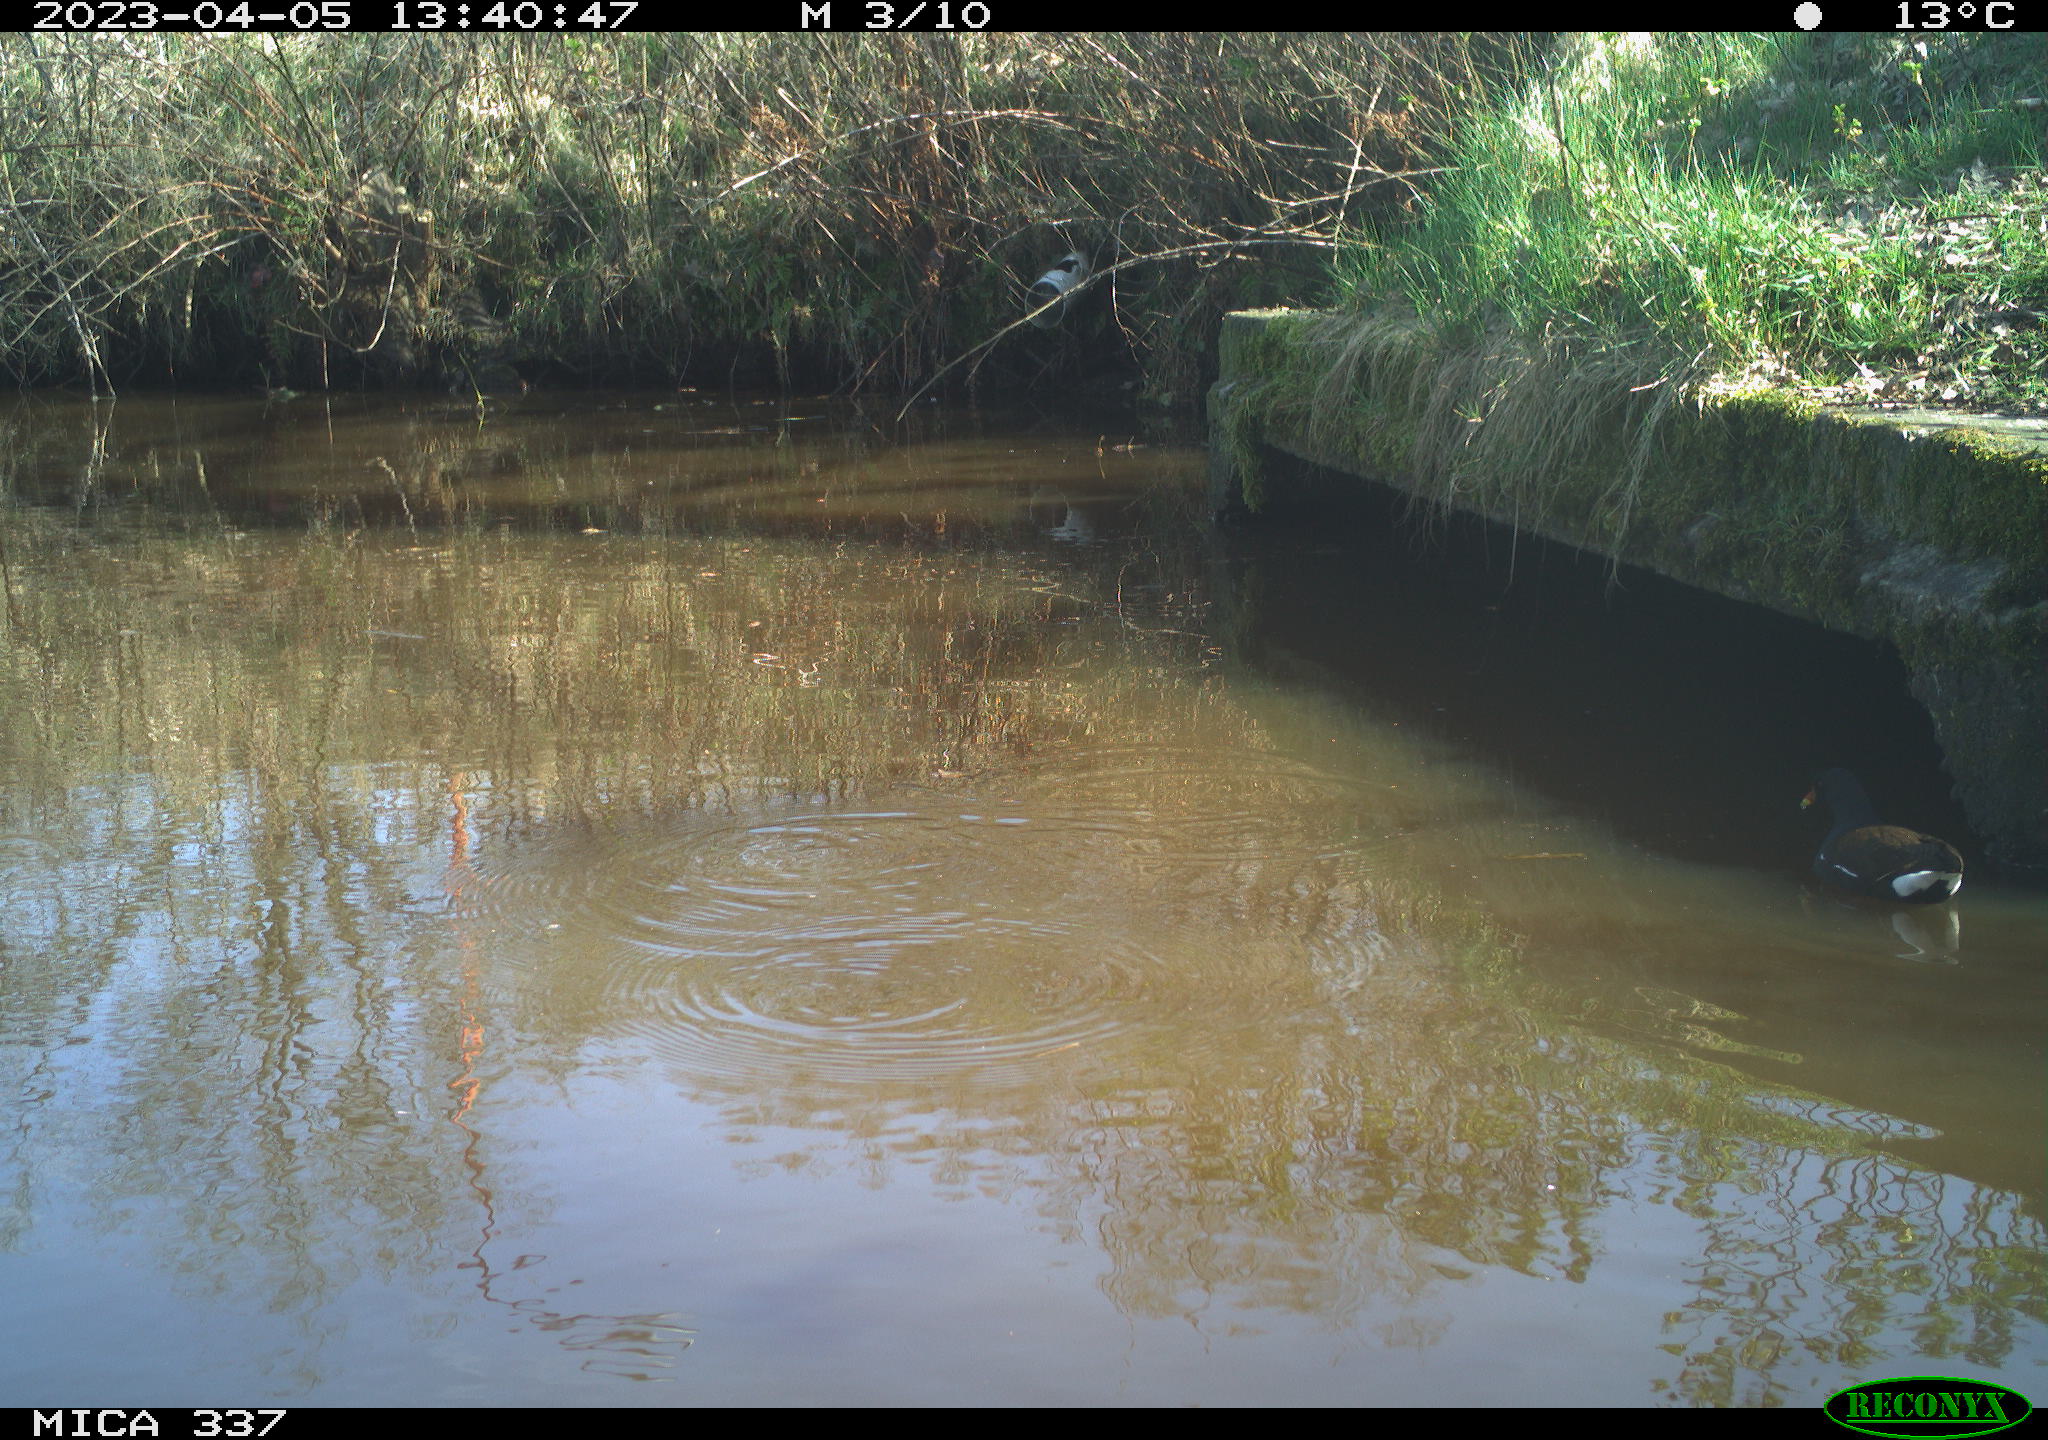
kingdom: Animalia
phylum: Chordata
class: Aves
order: Gruiformes
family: Rallidae
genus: Gallinula
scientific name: Gallinula chloropus
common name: Common moorhen
